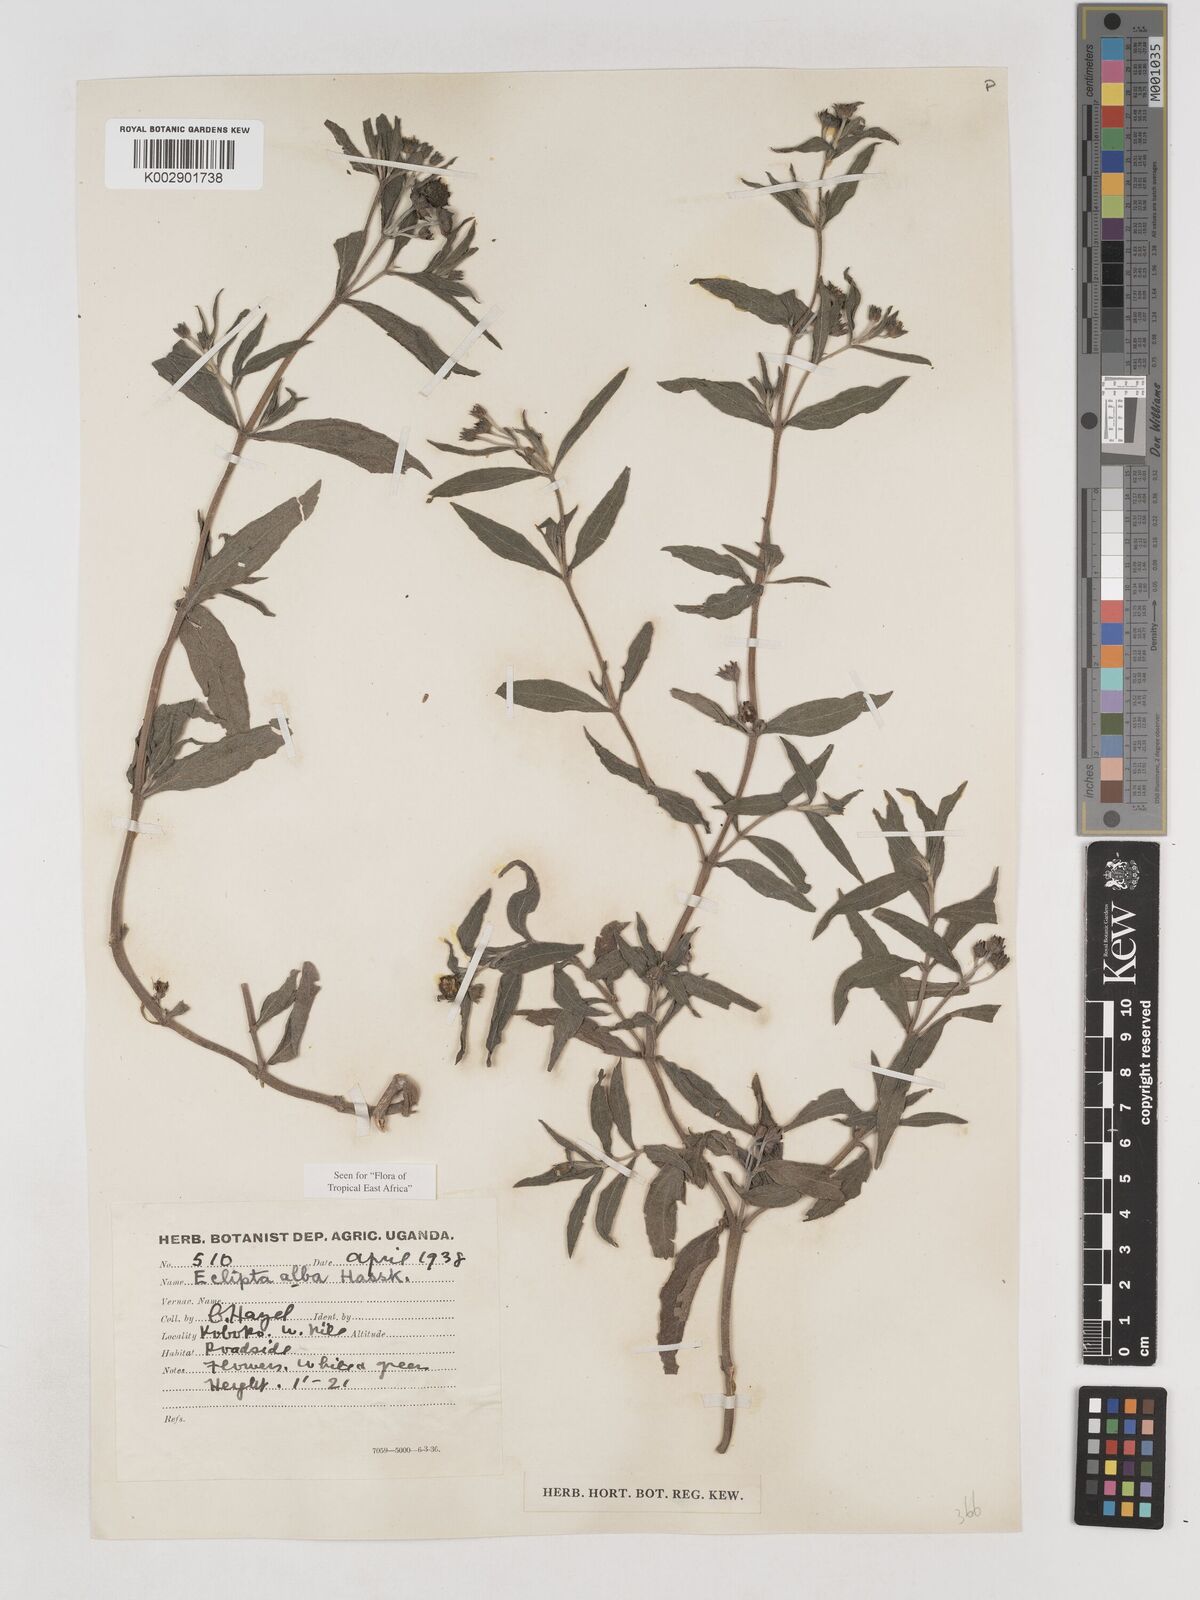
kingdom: Plantae
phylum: Tracheophyta
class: Magnoliopsida
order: Asterales
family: Asteraceae
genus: Eclipta
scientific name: Eclipta alba
